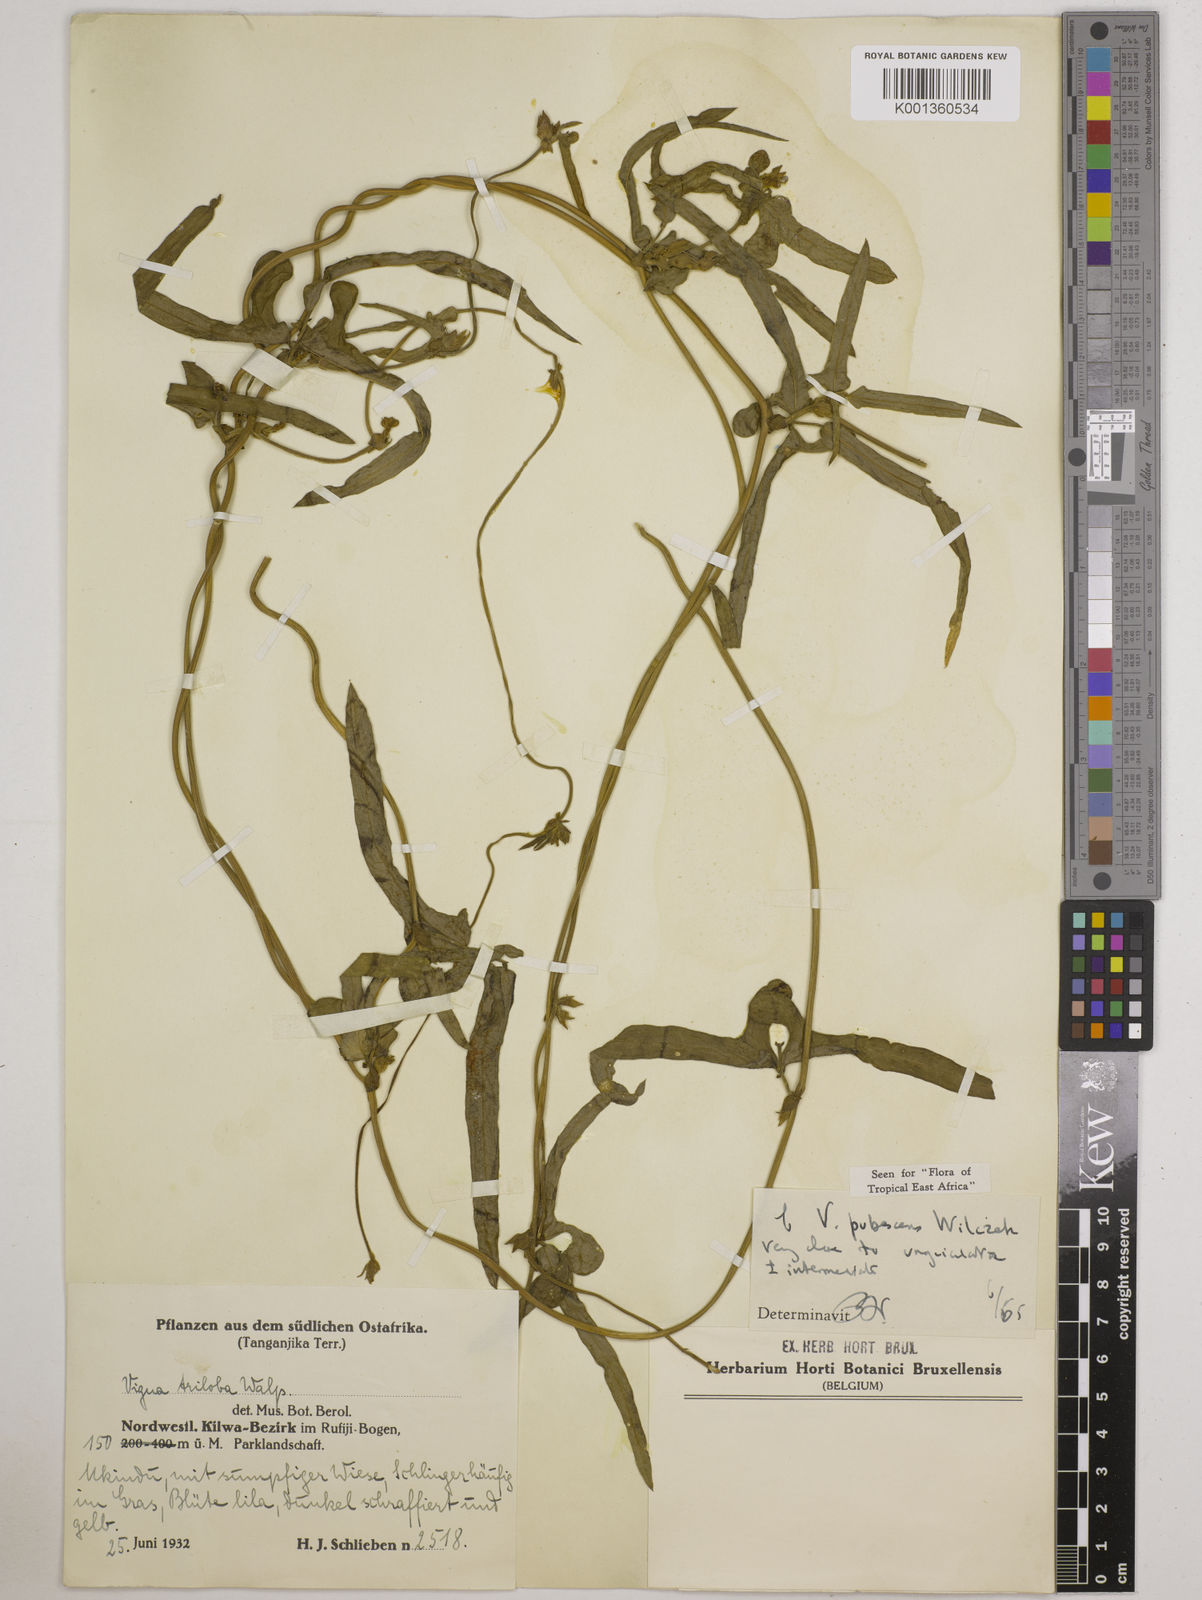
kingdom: Plantae
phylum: Tracheophyta
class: Magnoliopsida
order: Fabales
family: Fabaceae
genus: Vigna
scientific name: Vigna unguiculata
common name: Cowpea
